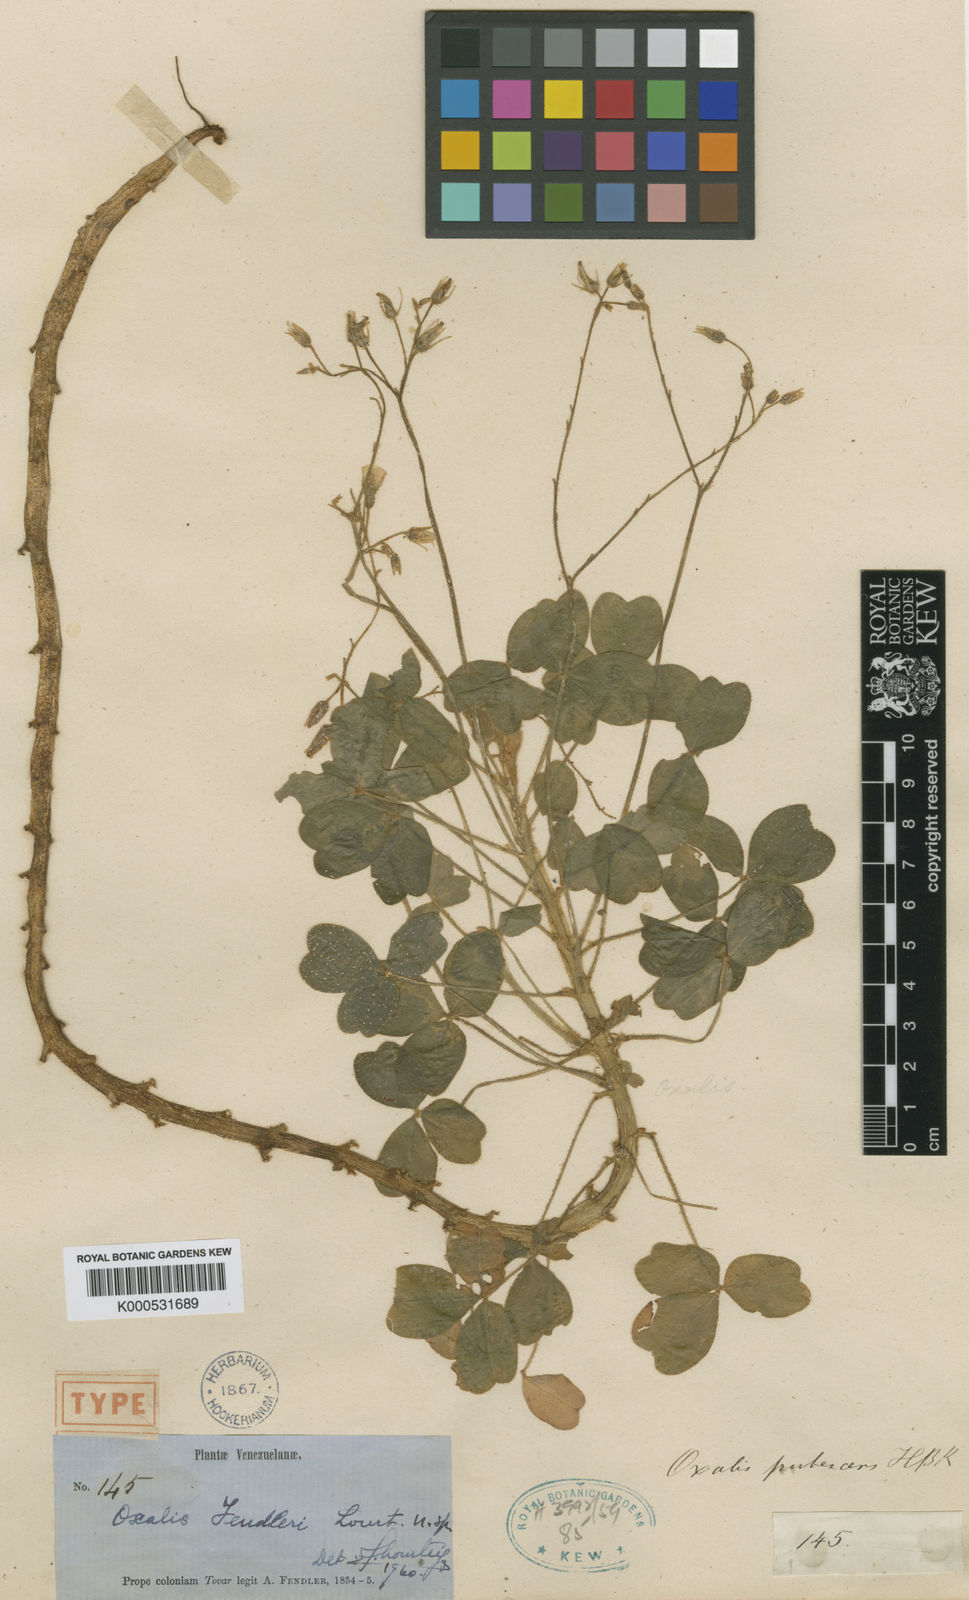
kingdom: Plantae
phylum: Tracheophyta
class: Magnoliopsida
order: Oxalidales
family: Oxalidaceae
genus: Oxalis
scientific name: Oxalis fendleri
